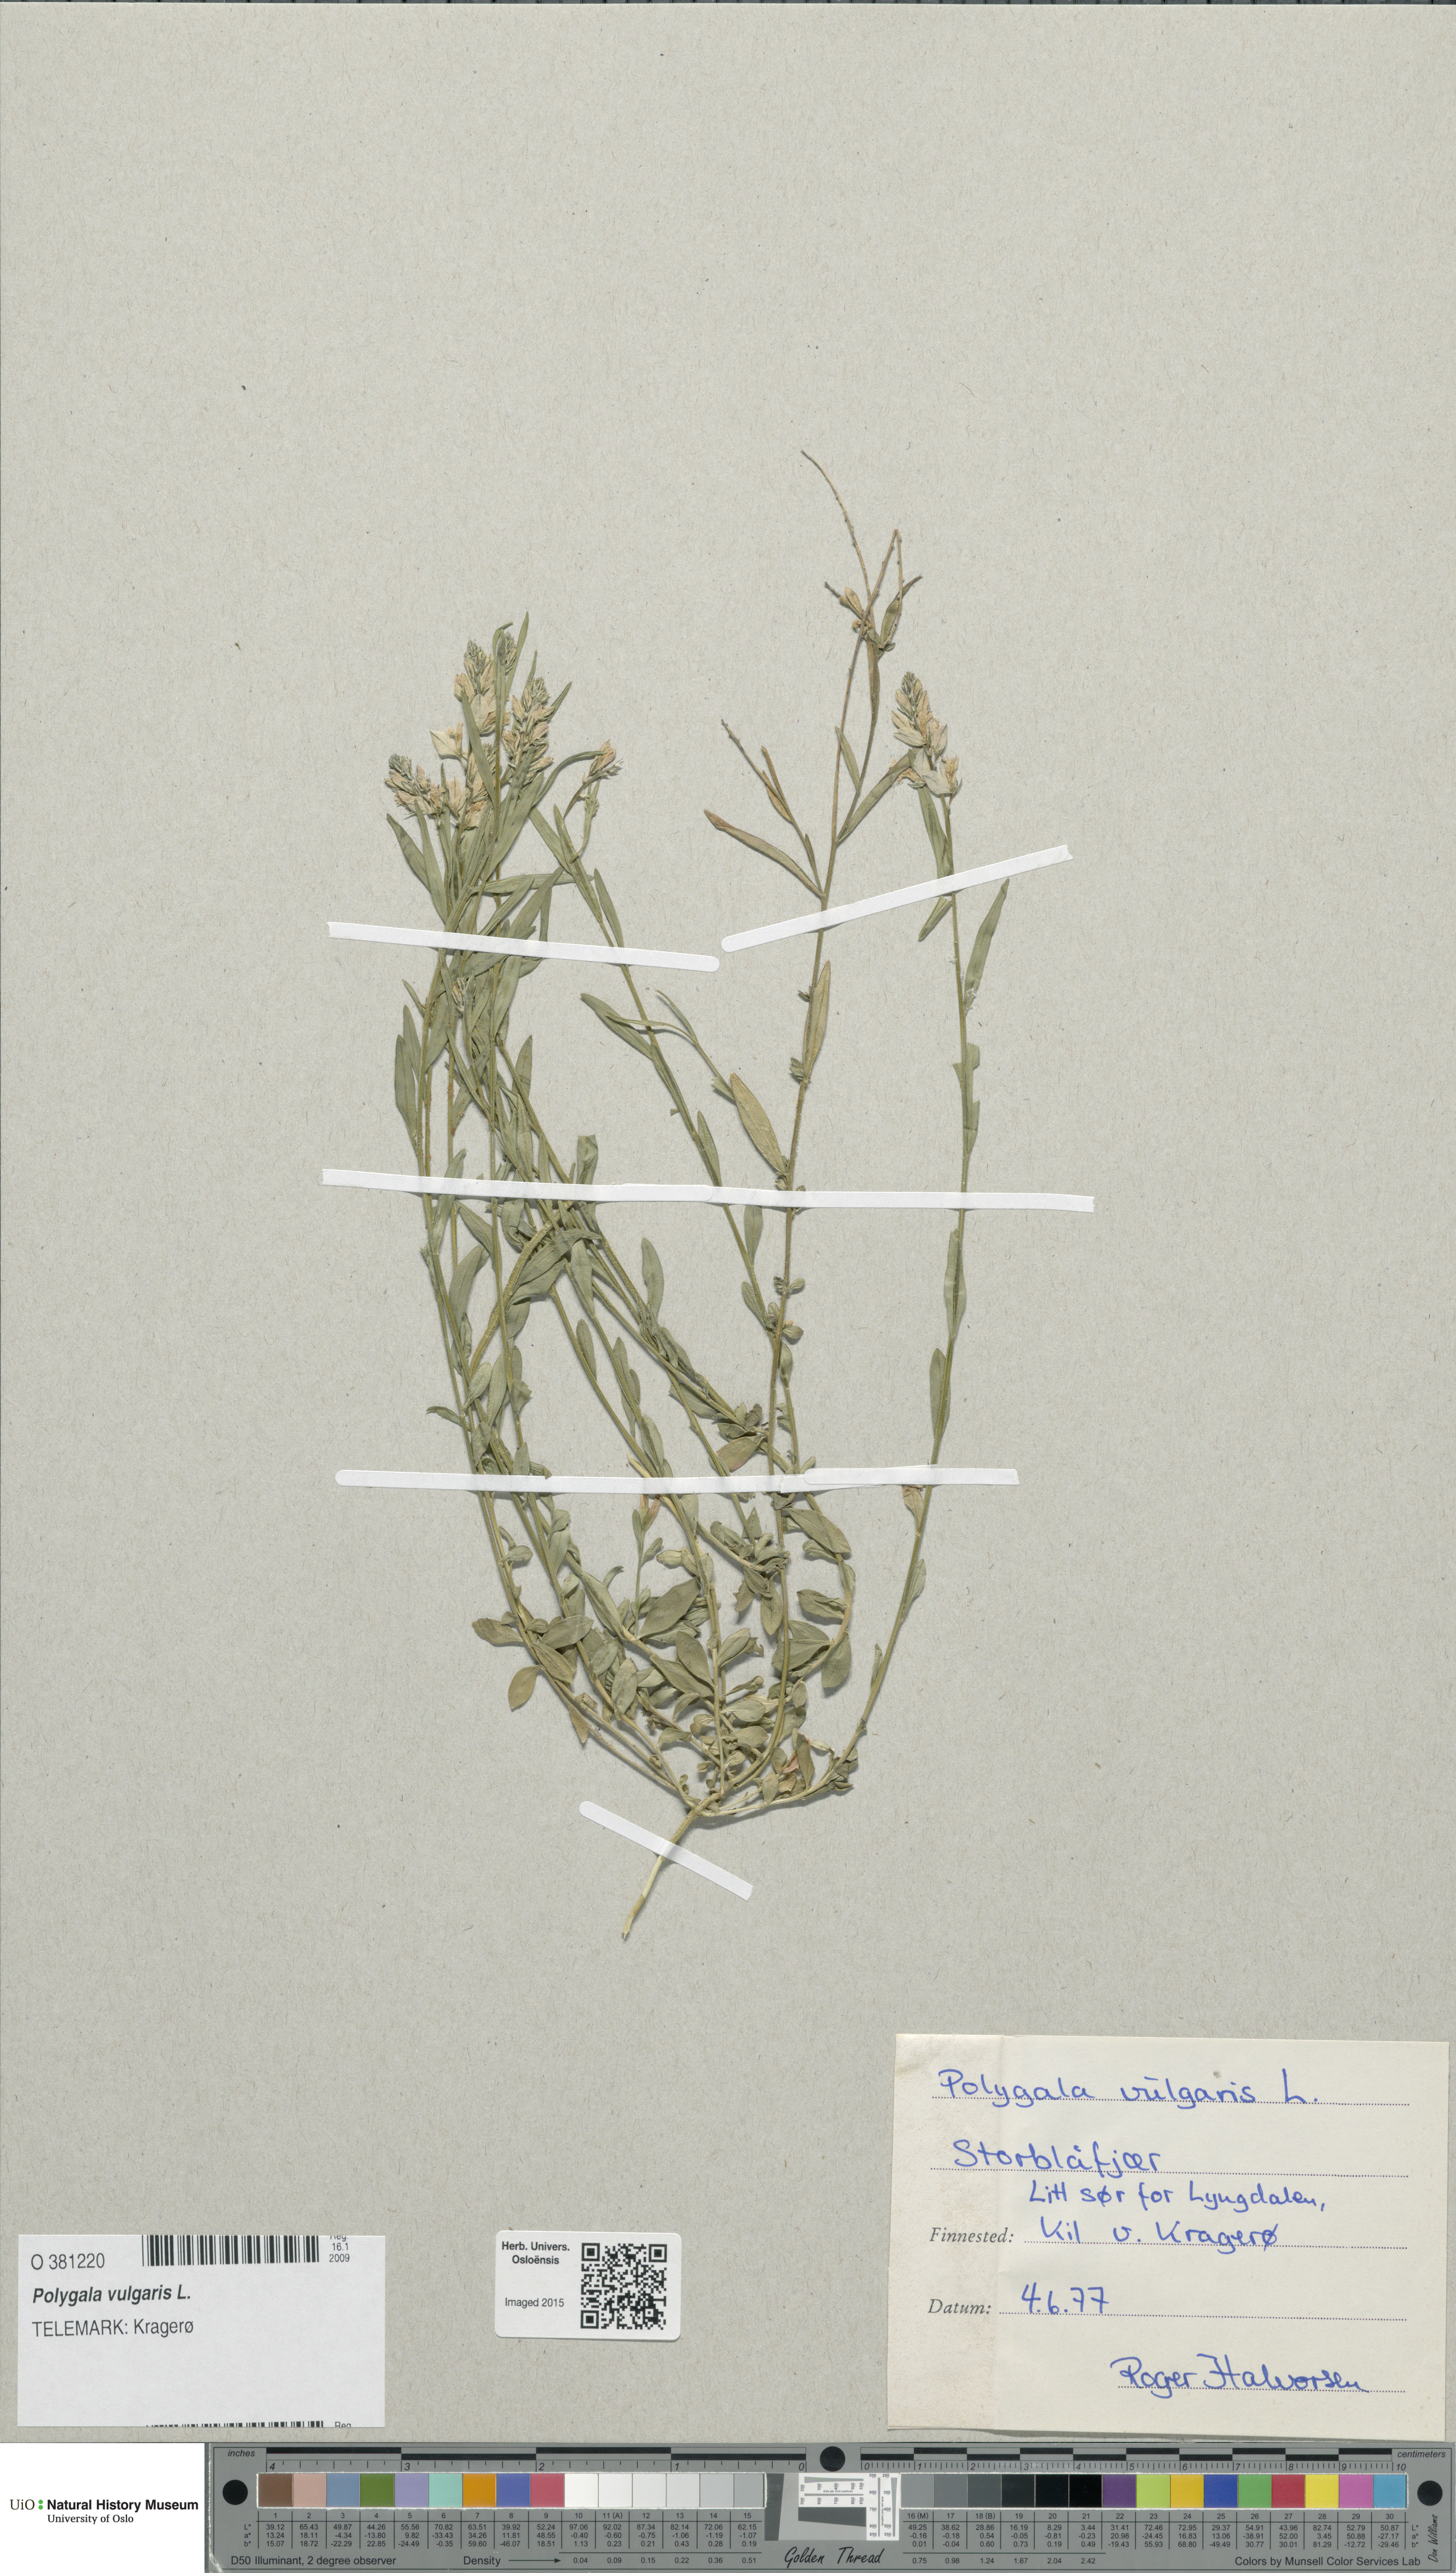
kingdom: Plantae
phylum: Tracheophyta
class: Magnoliopsida
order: Fabales
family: Polygalaceae
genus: Polygala
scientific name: Polygala vulgaris
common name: Common milkwort
